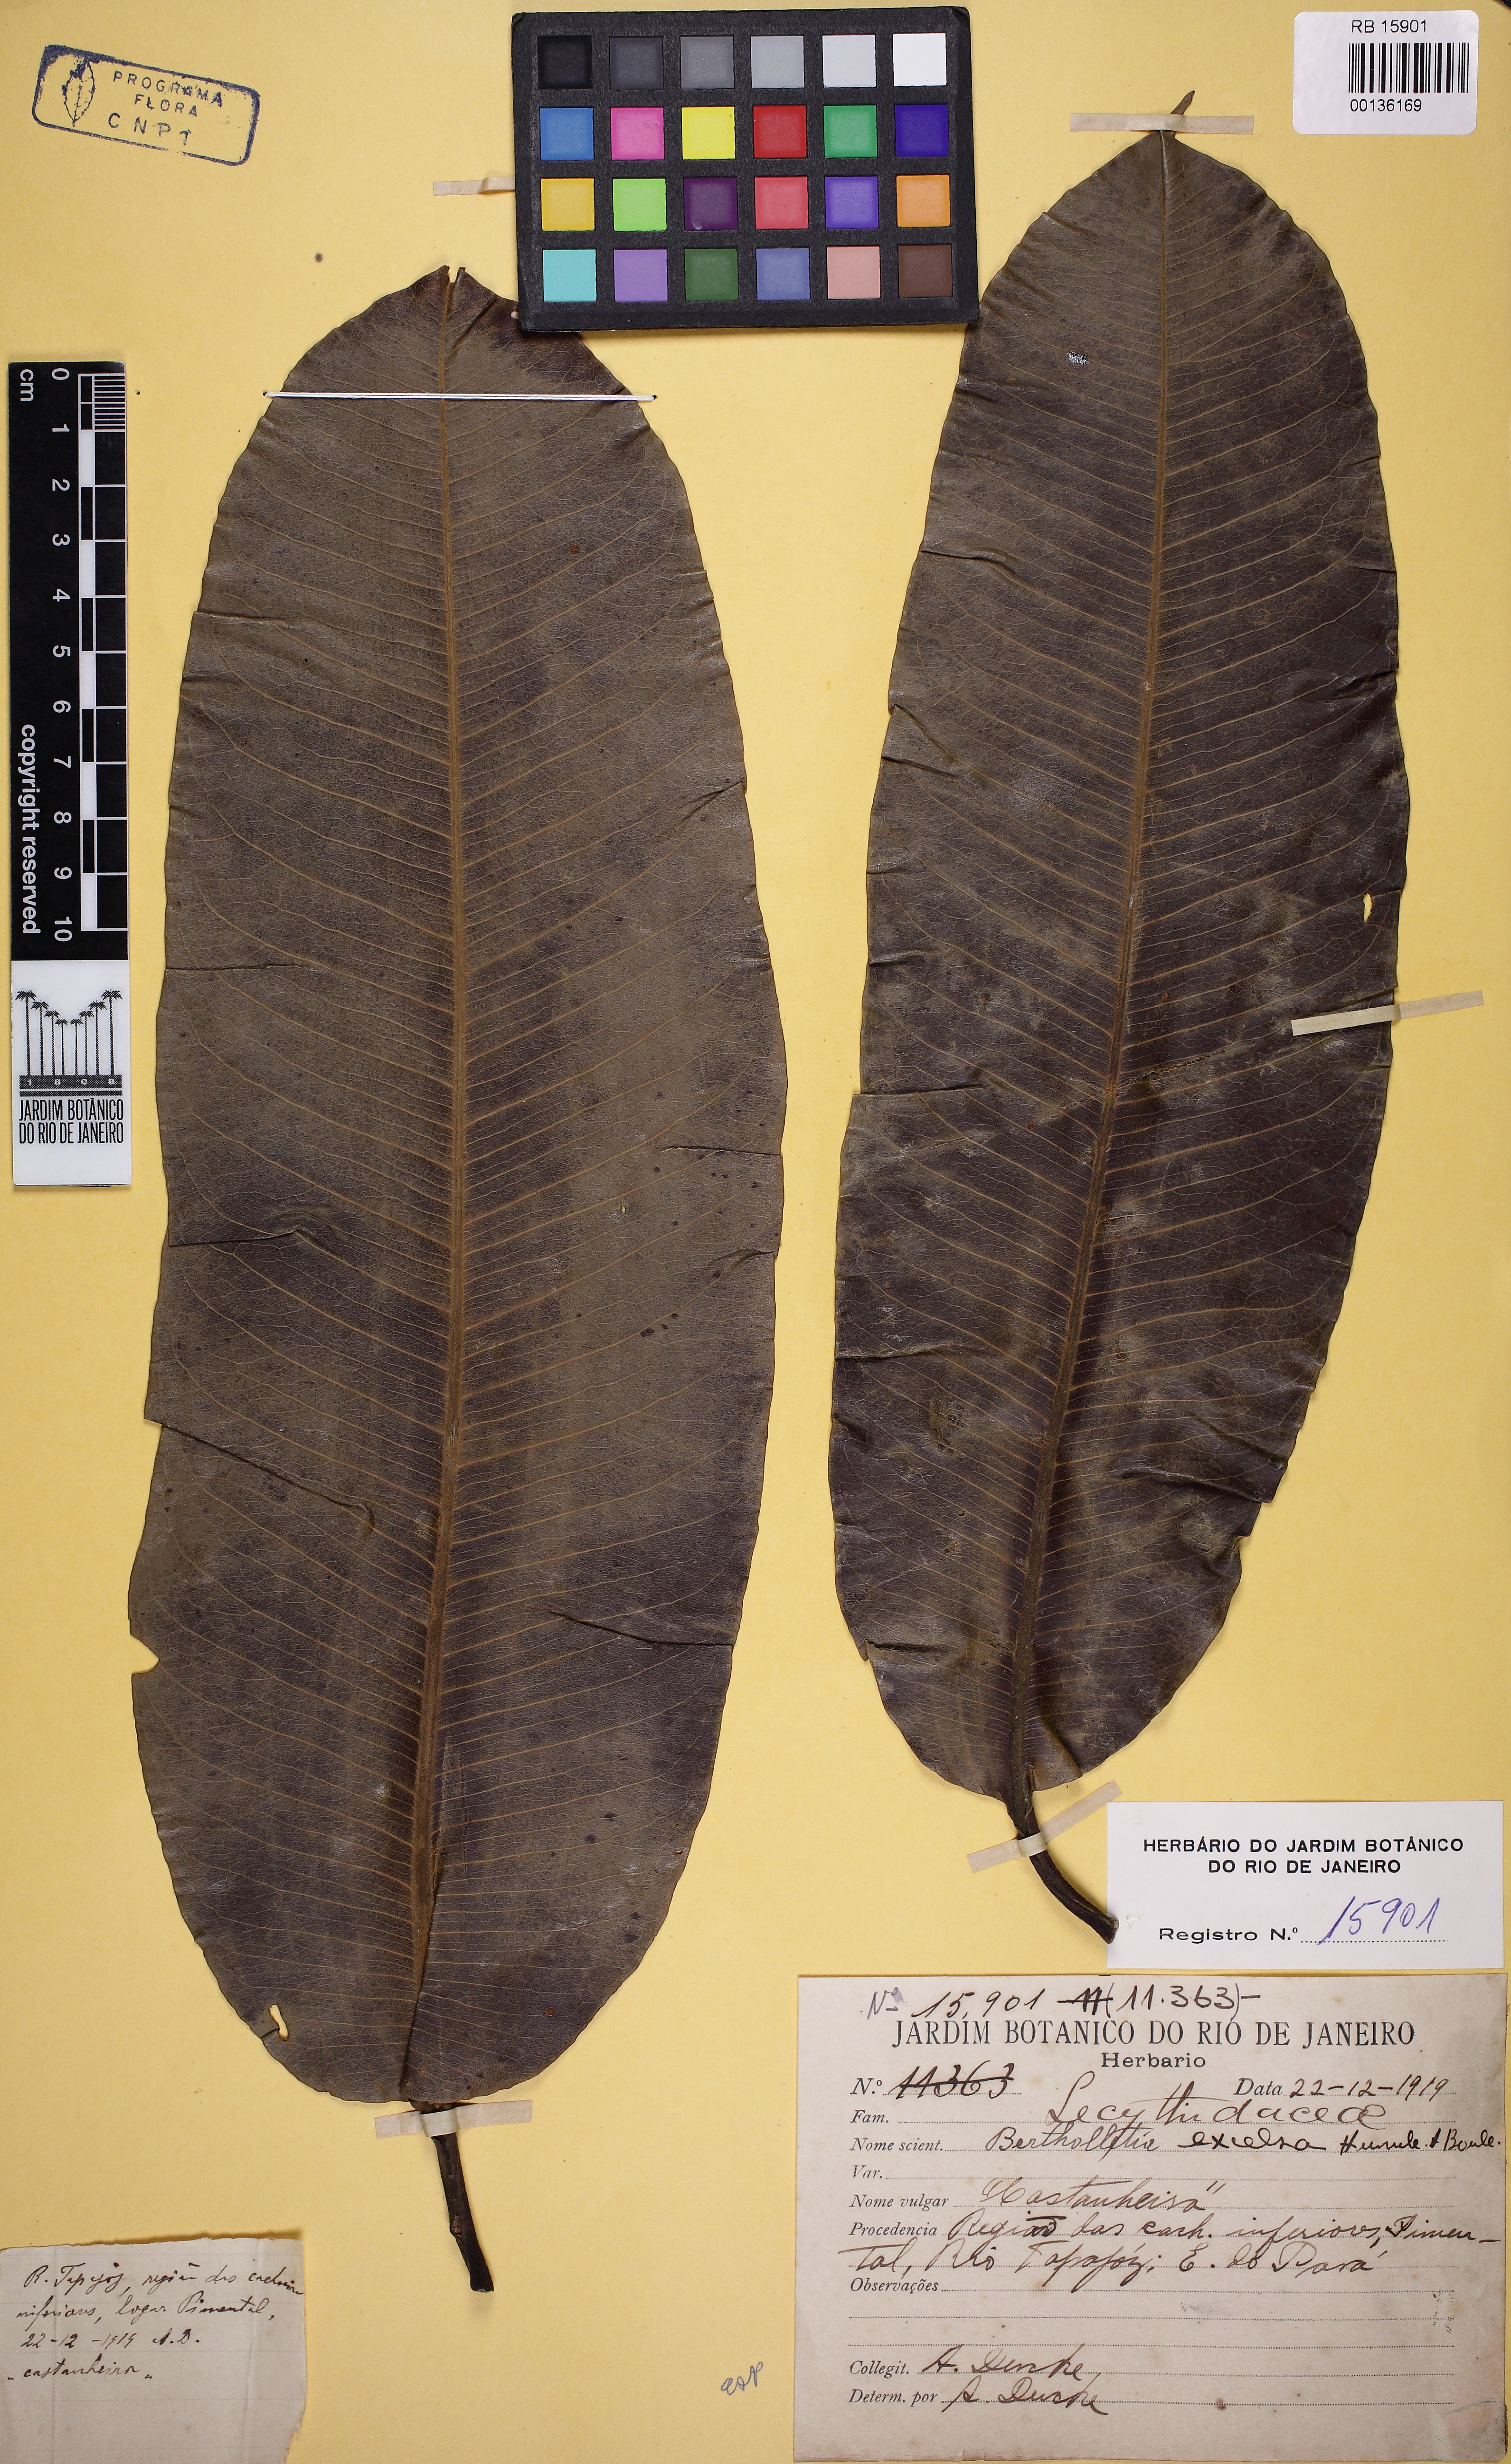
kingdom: Plantae
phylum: Tracheophyta
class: Magnoliopsida
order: Ericales
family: Lecythidaceae
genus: Bertholletia
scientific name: Bertholletia excelsa
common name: Brazil-nut tree
